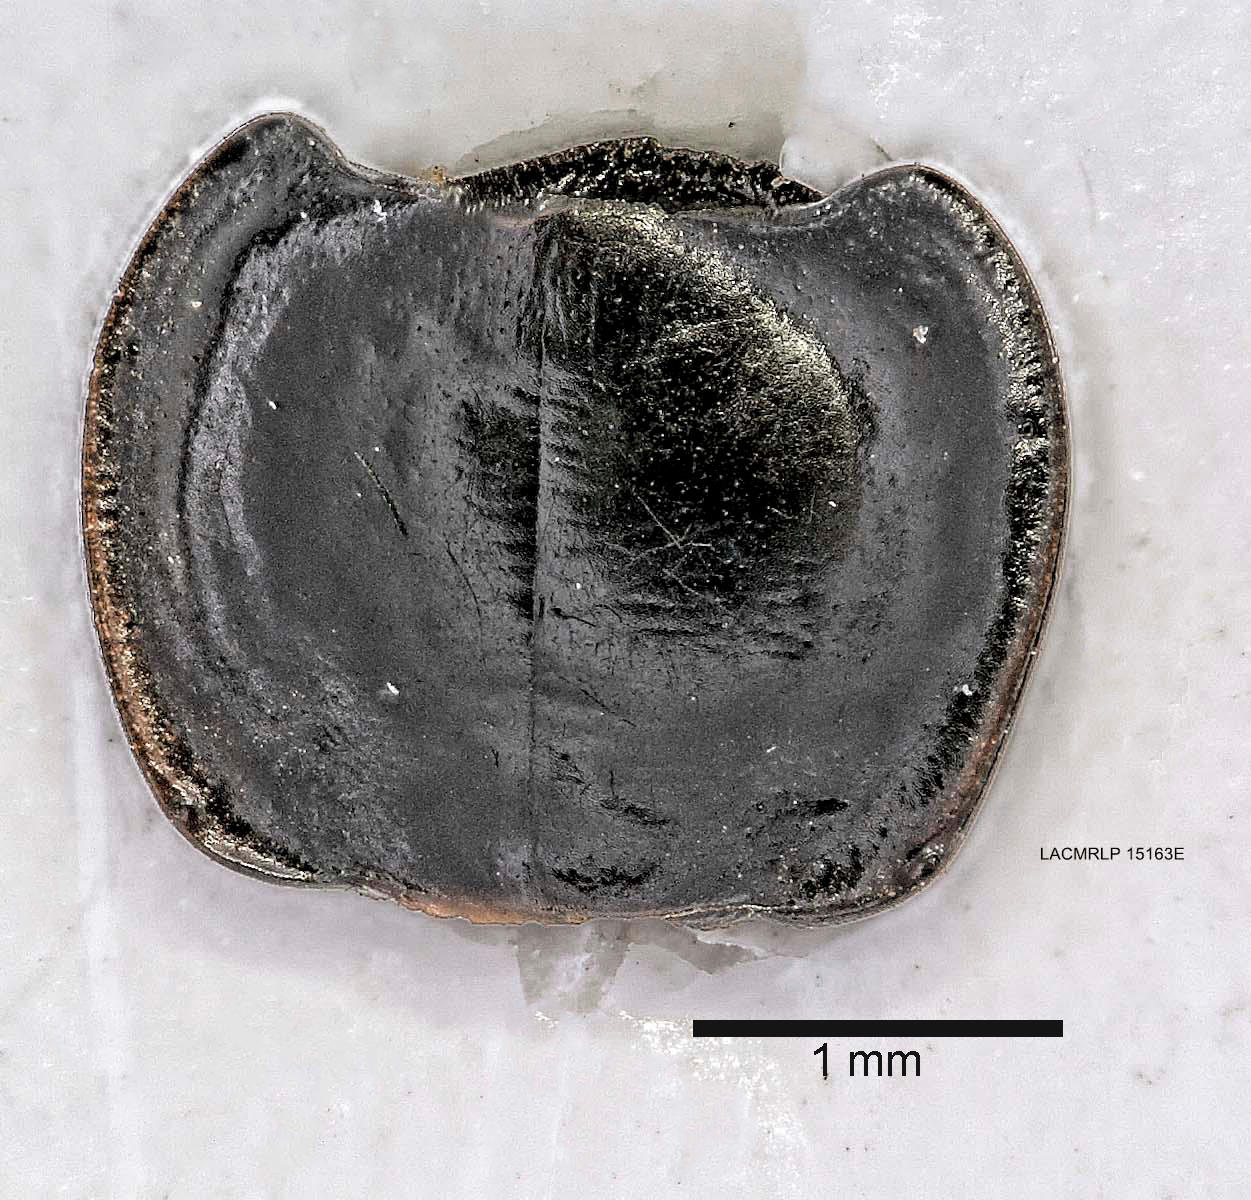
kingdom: Animalia
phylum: Arthropoda
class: Insecta
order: Coleoptera
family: Carabidae
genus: Tanystoma
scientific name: Tanystoma maculicolle
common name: Tule beetle
